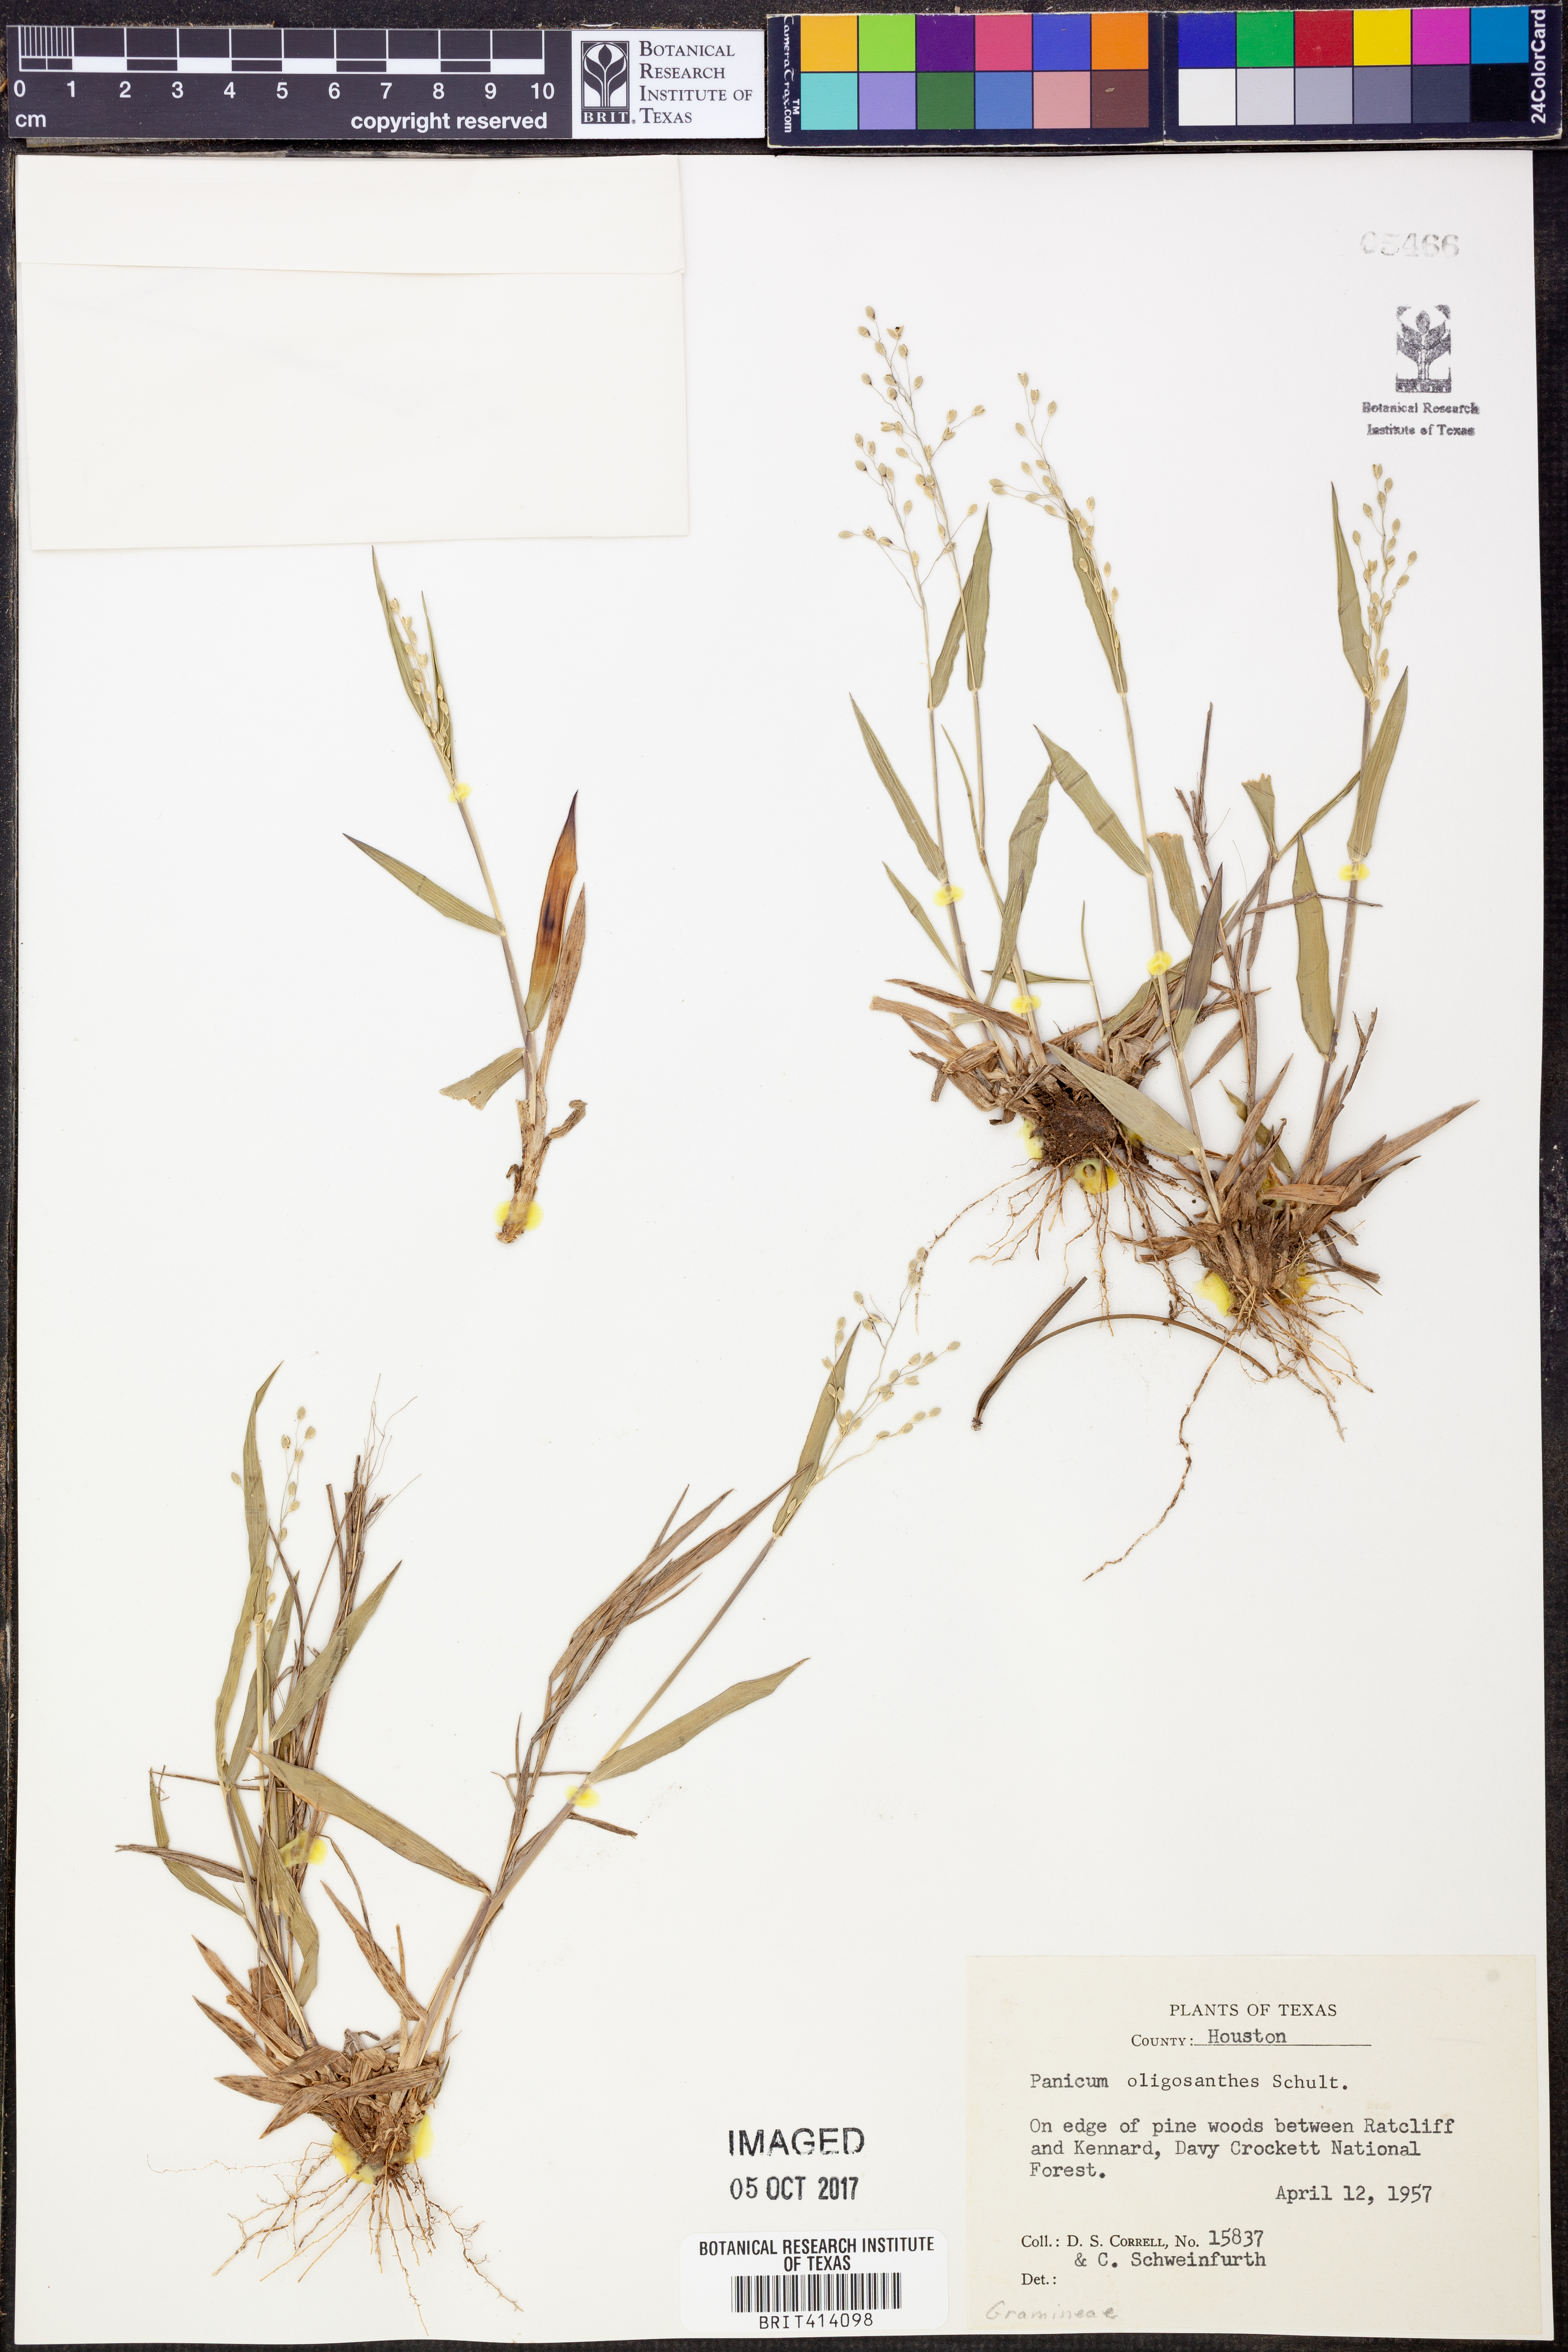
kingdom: Plantae
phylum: Tracheophyta
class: Liliopsida
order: Poales
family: Poaceae
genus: Dichanthelium
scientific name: Dichanthelium oligosanthes
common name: Few-anther obscuregrass
